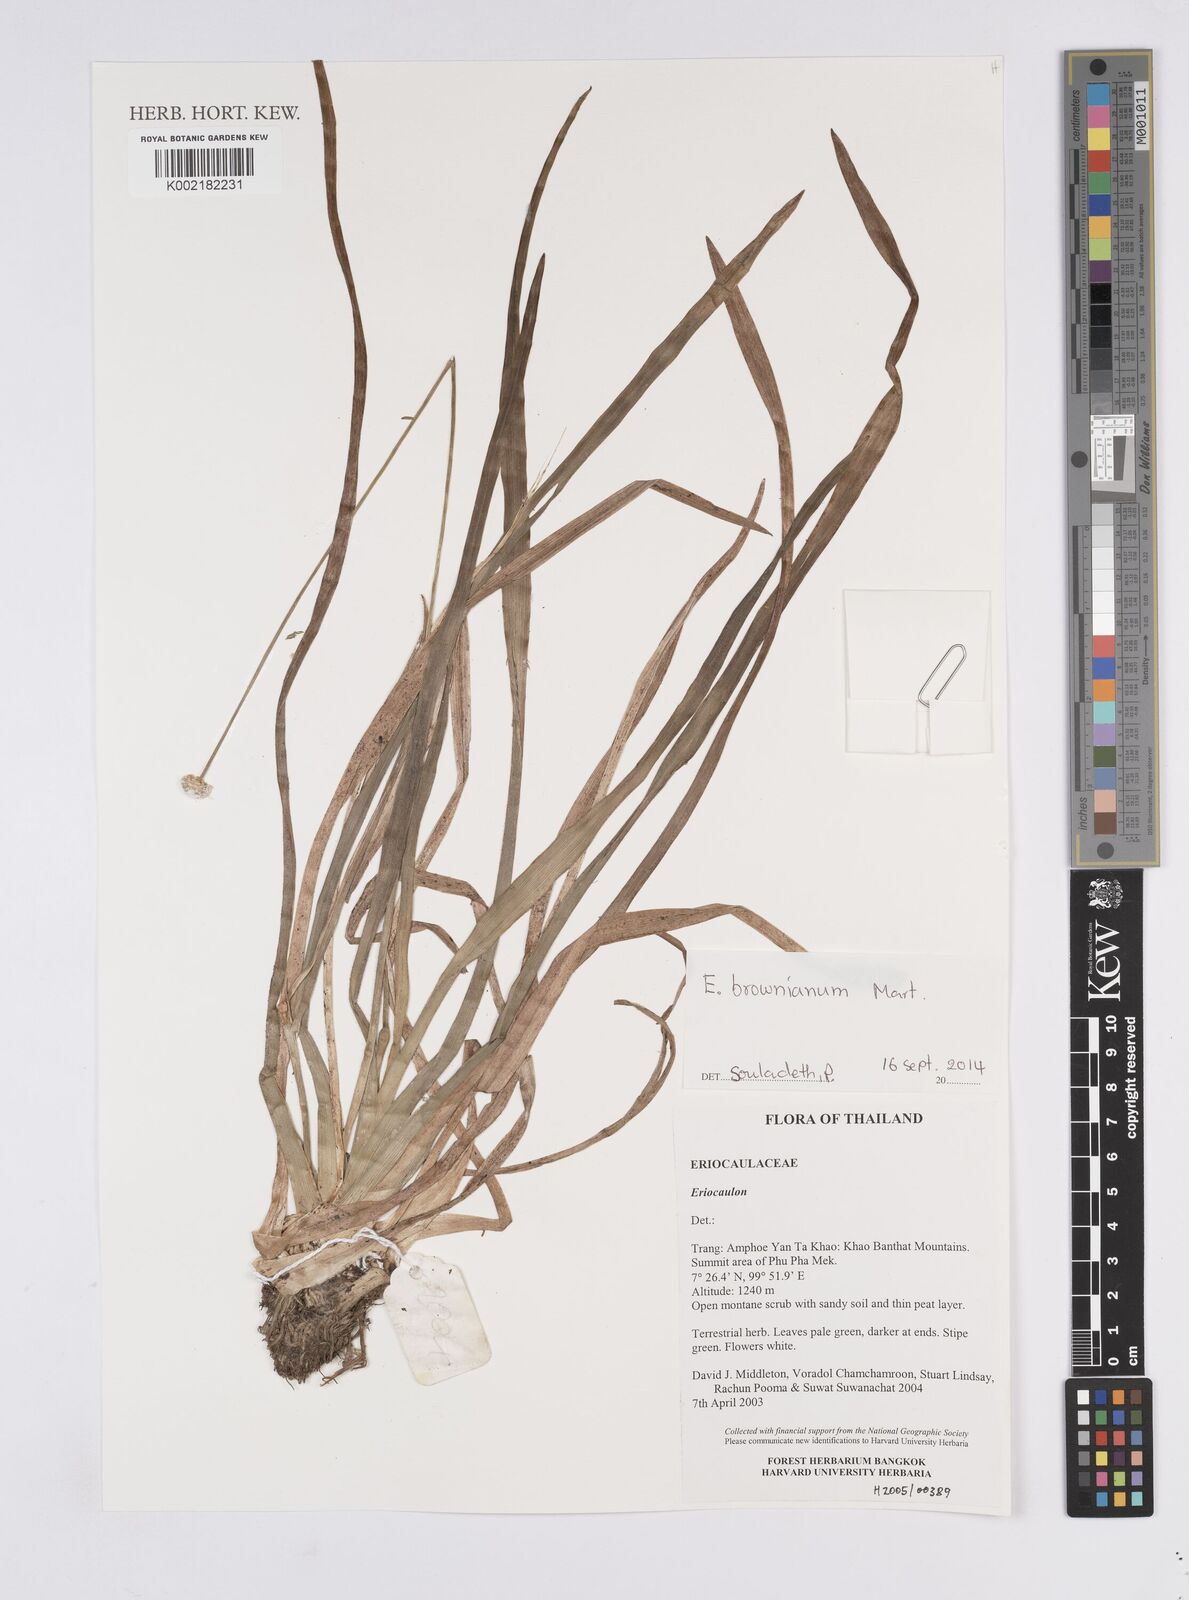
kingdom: Plantae
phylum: Tracheophyta
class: Liliopsida
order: Poales
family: Eriocaulaceae
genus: Eriocaulon
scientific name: Eriocaulon brownianum
